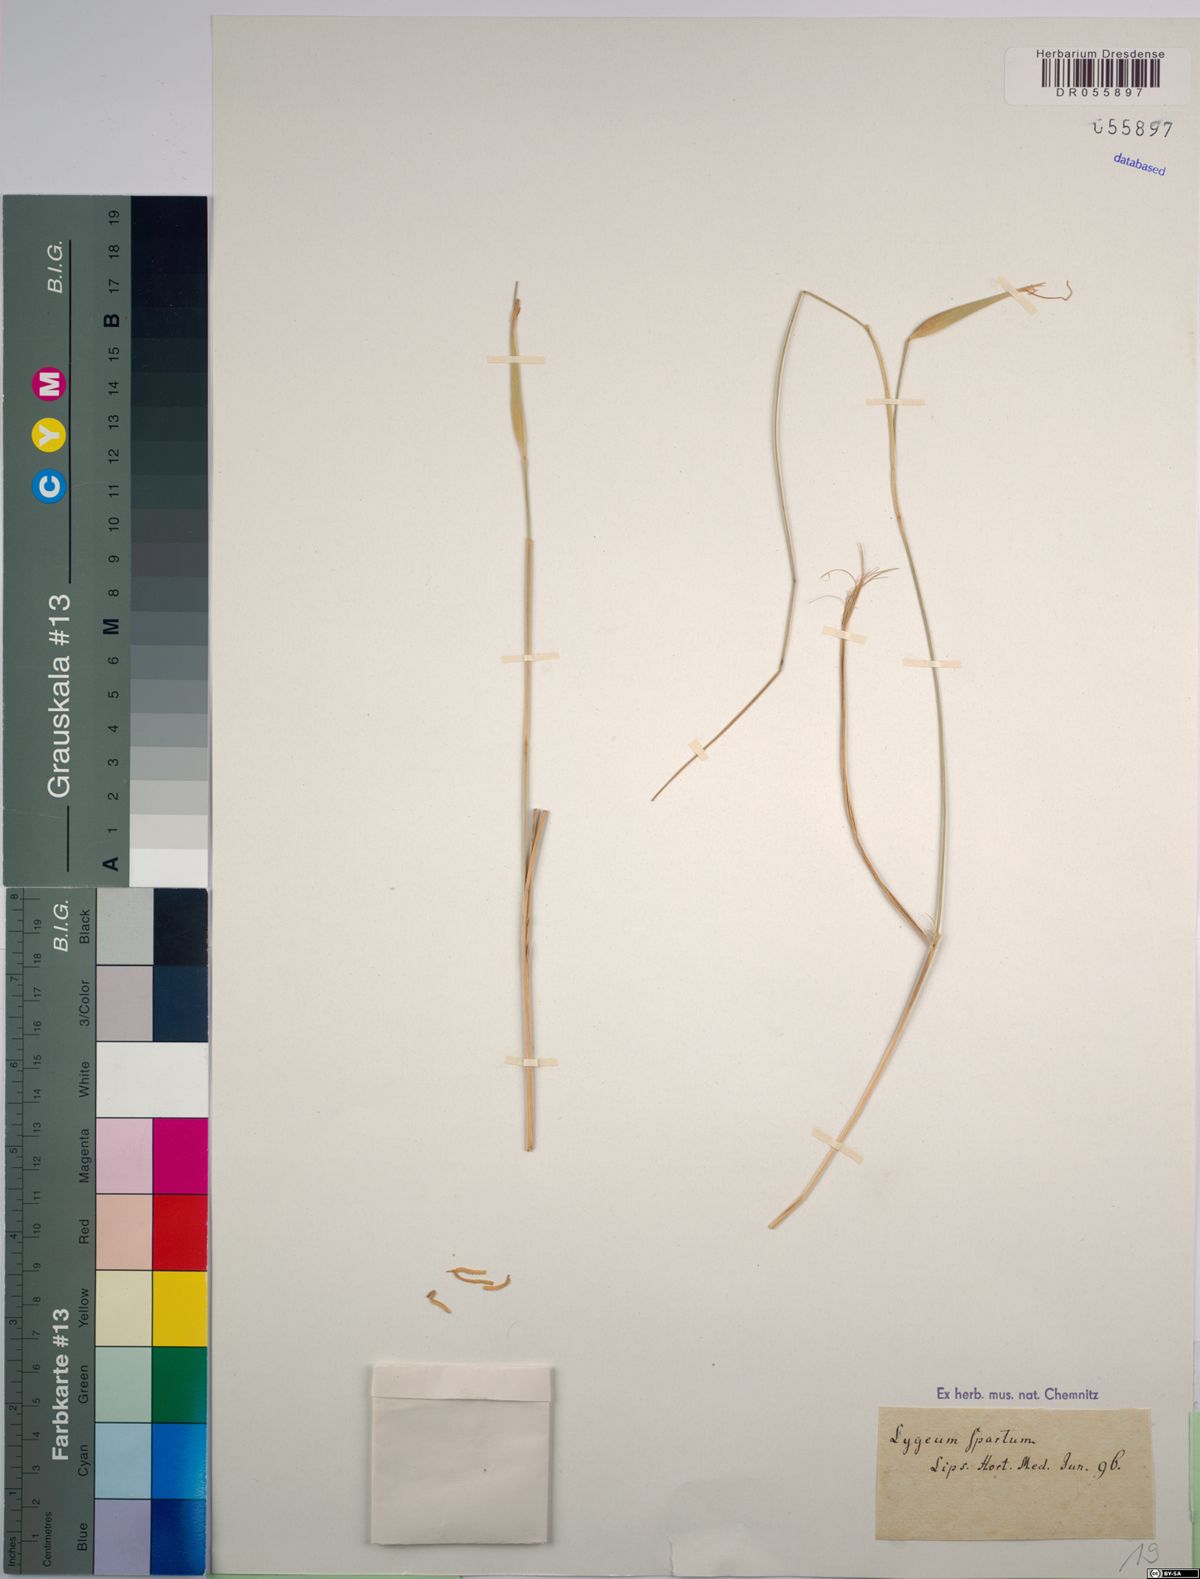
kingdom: Plantae
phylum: Tracheophyta
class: Liliopsida
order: Poales
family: Poaceae
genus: Lygeum
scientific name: Lygeum spartum
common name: Albardine
